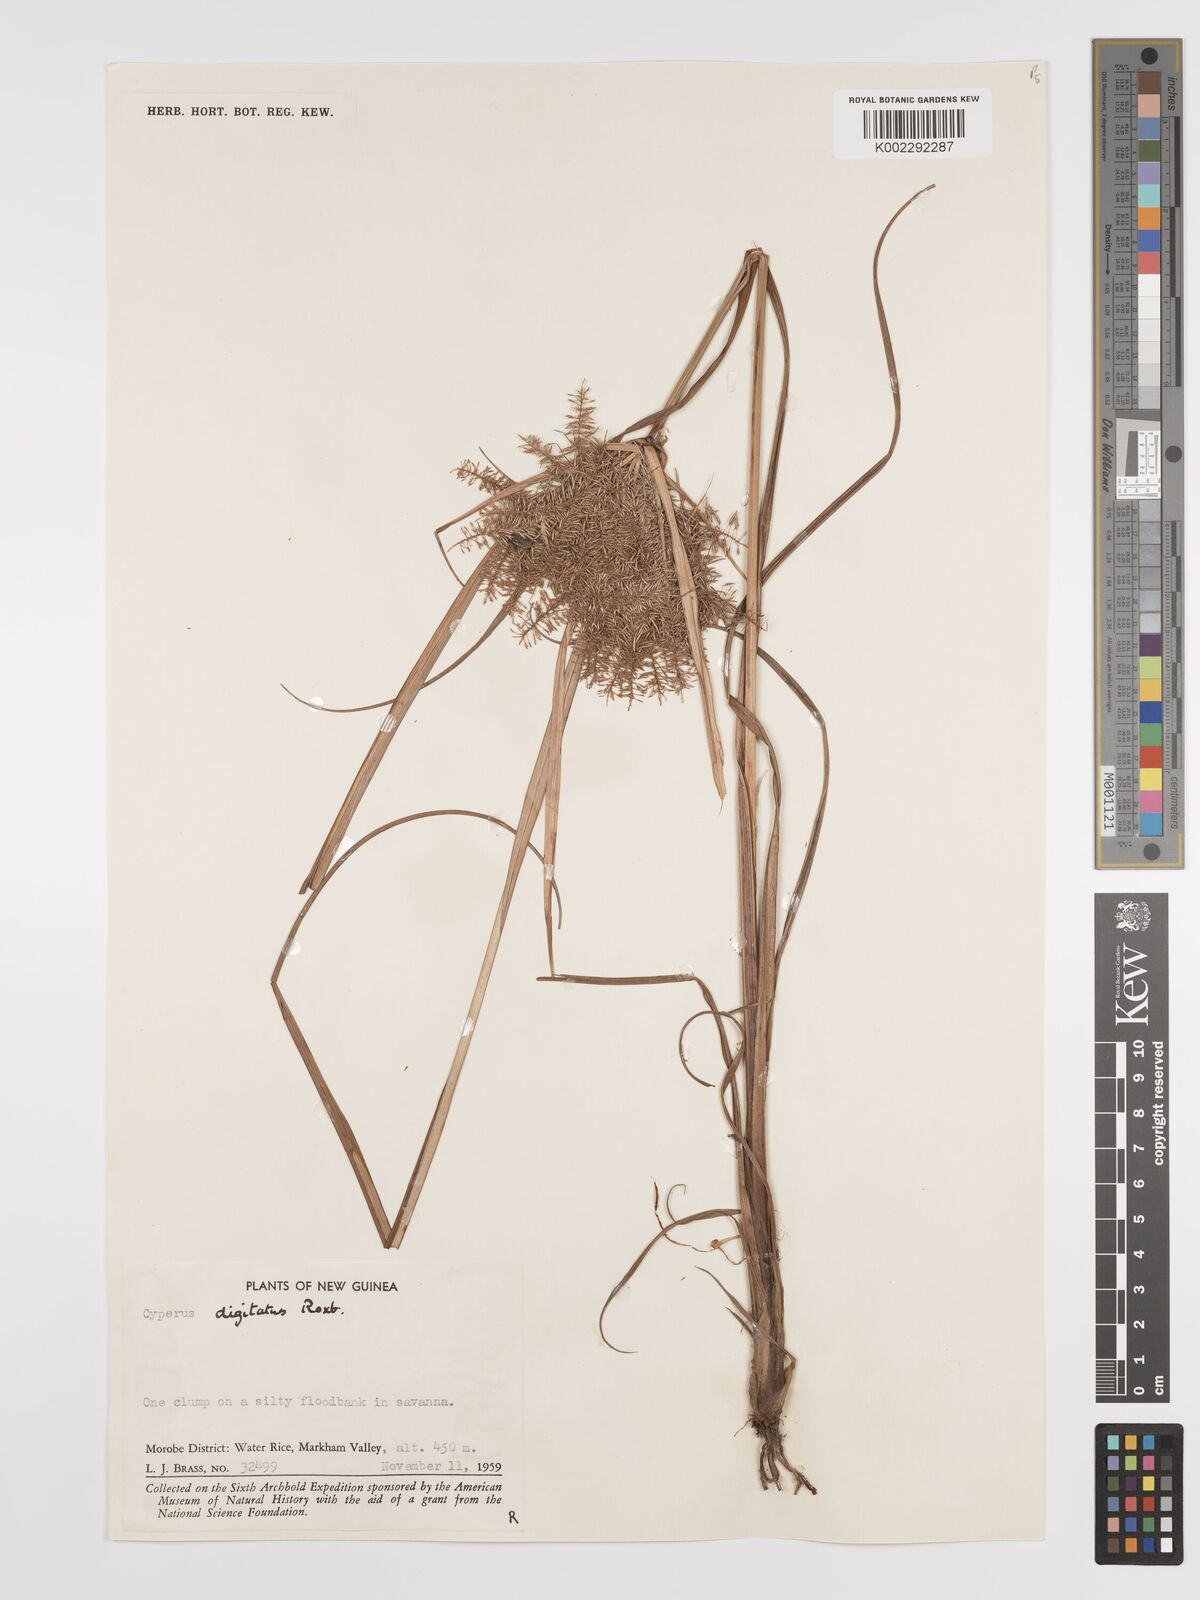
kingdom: Plantae
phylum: Tracheophyta
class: Liliopsida
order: Poales
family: Cyperaceae
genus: Cyperus
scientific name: Cyperus digitatus
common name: Finger flatsedge
